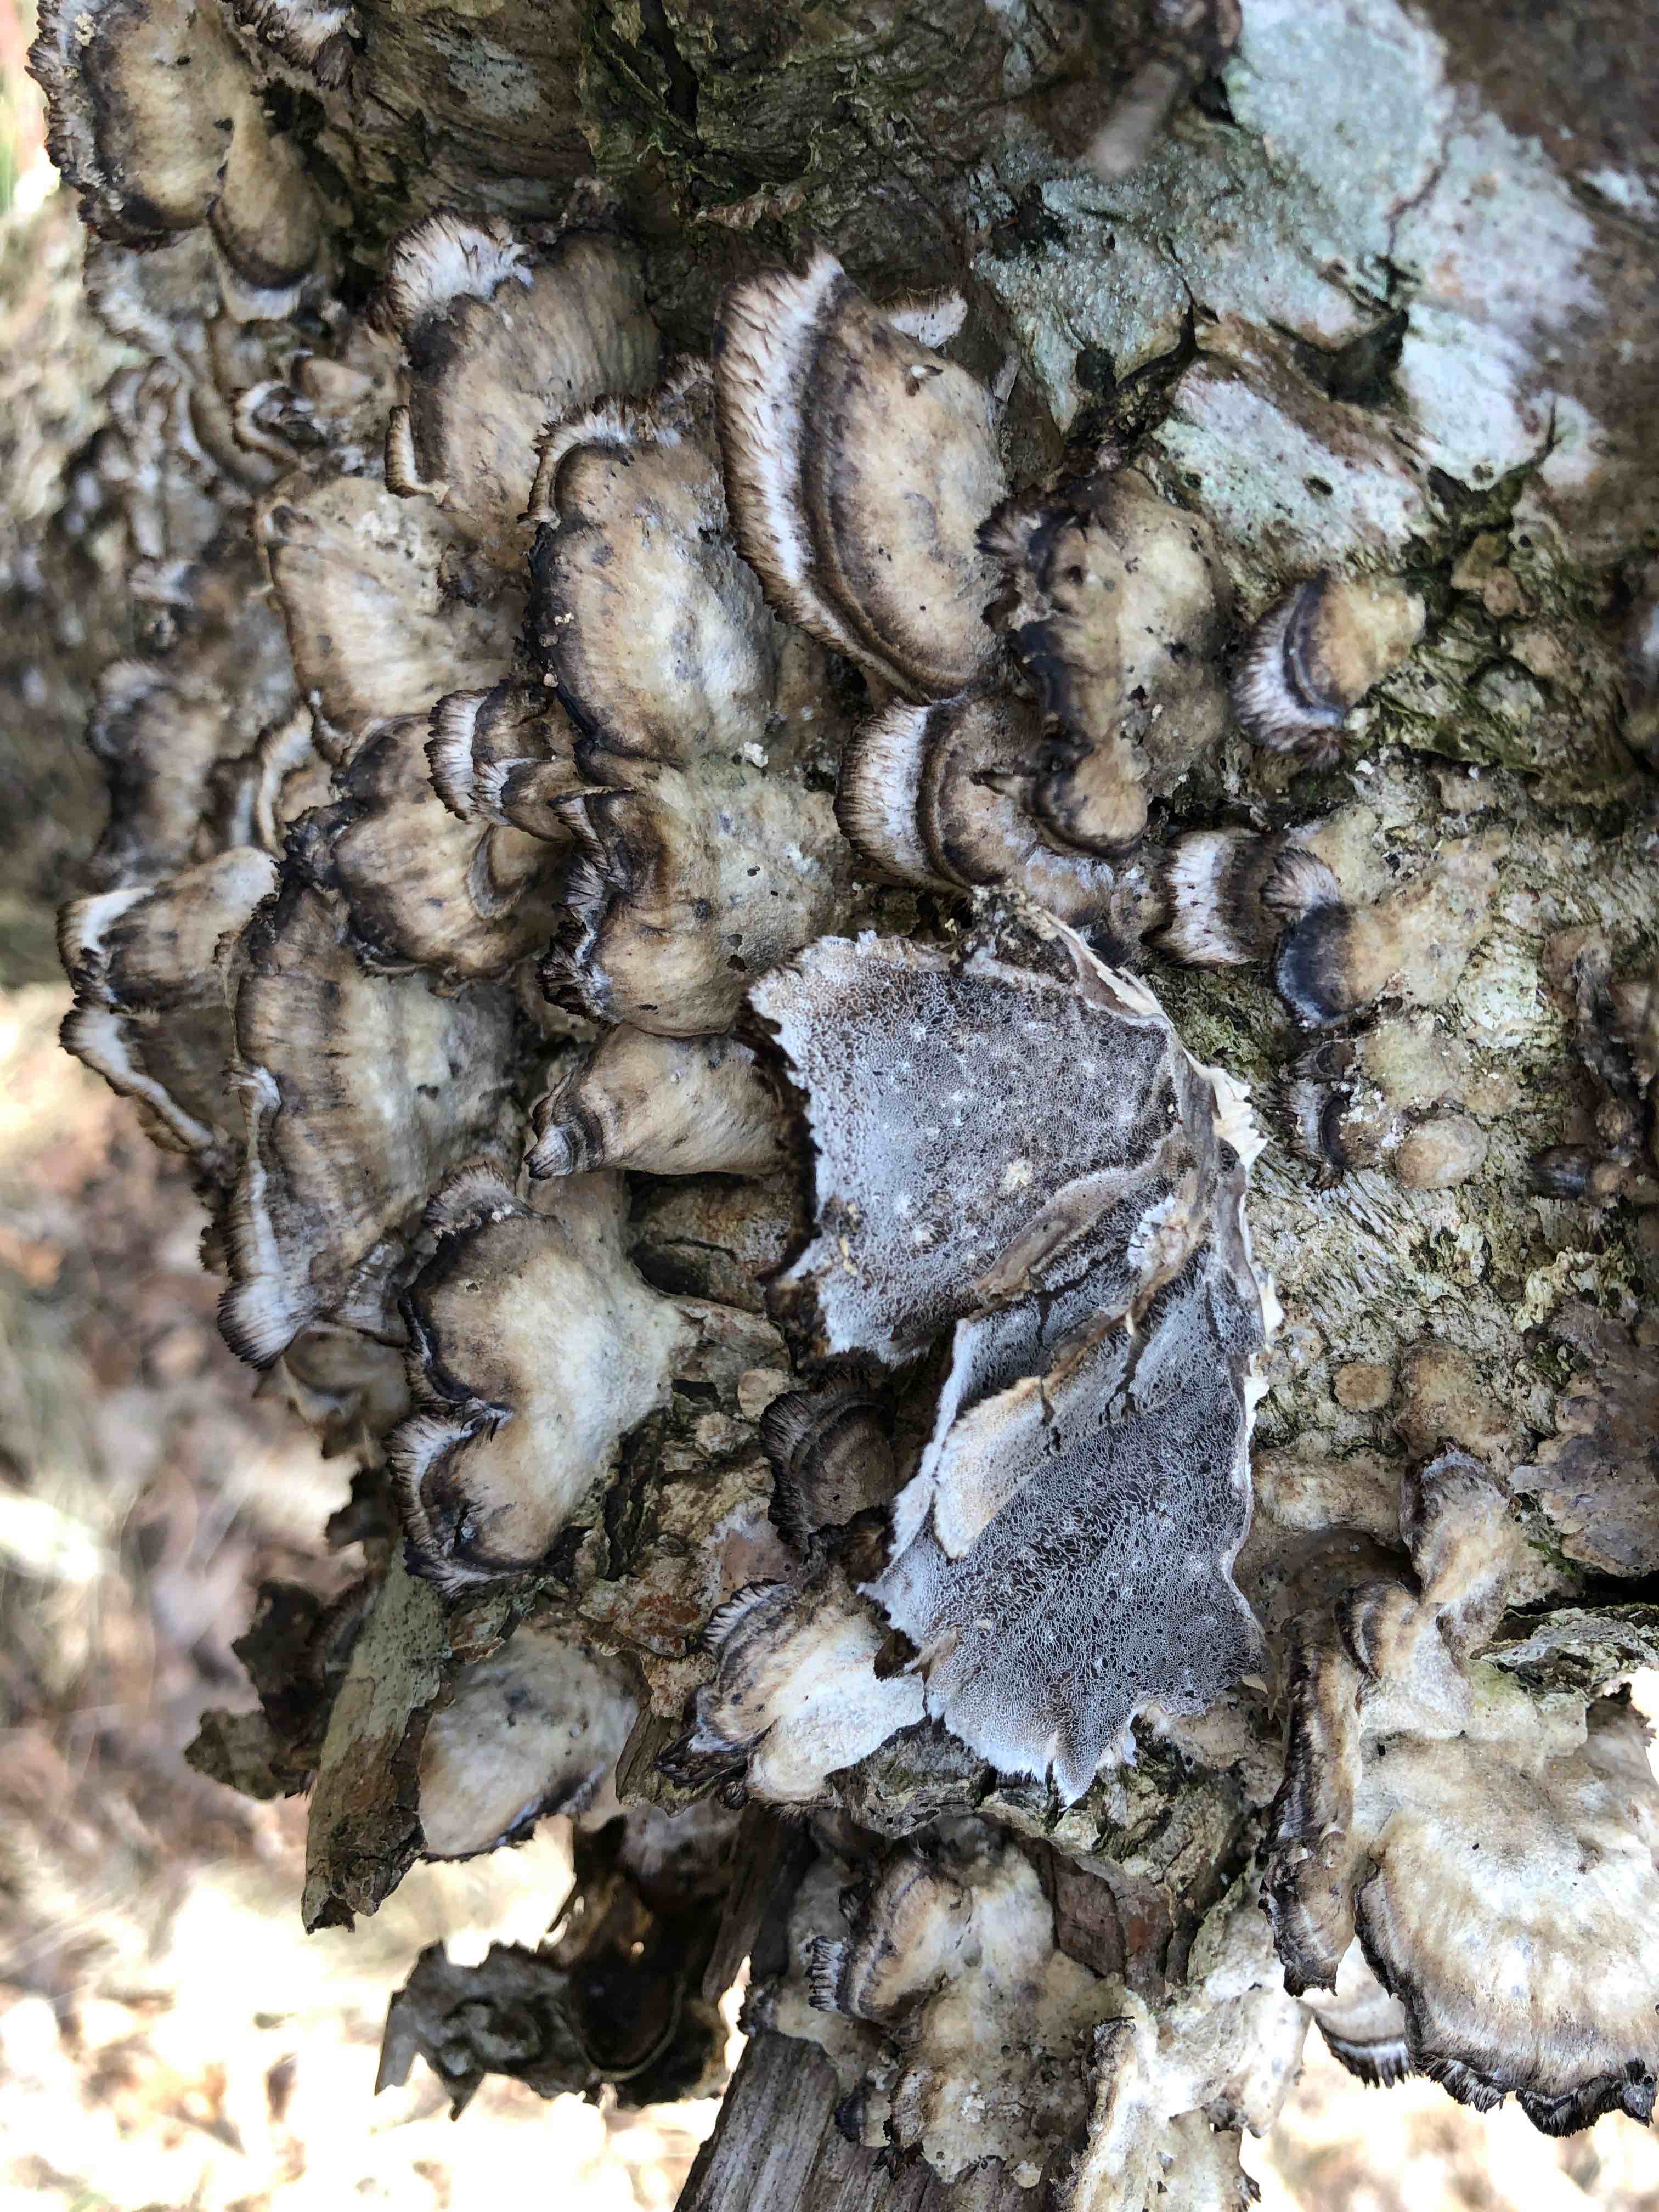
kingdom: Fungi
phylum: Basidiomycota
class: Agaricomycetes
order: Polyporales
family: Phanerochaetaceae
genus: Bjerkandera
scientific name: Bjerkandera adusta
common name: sveden sodporesvamp
